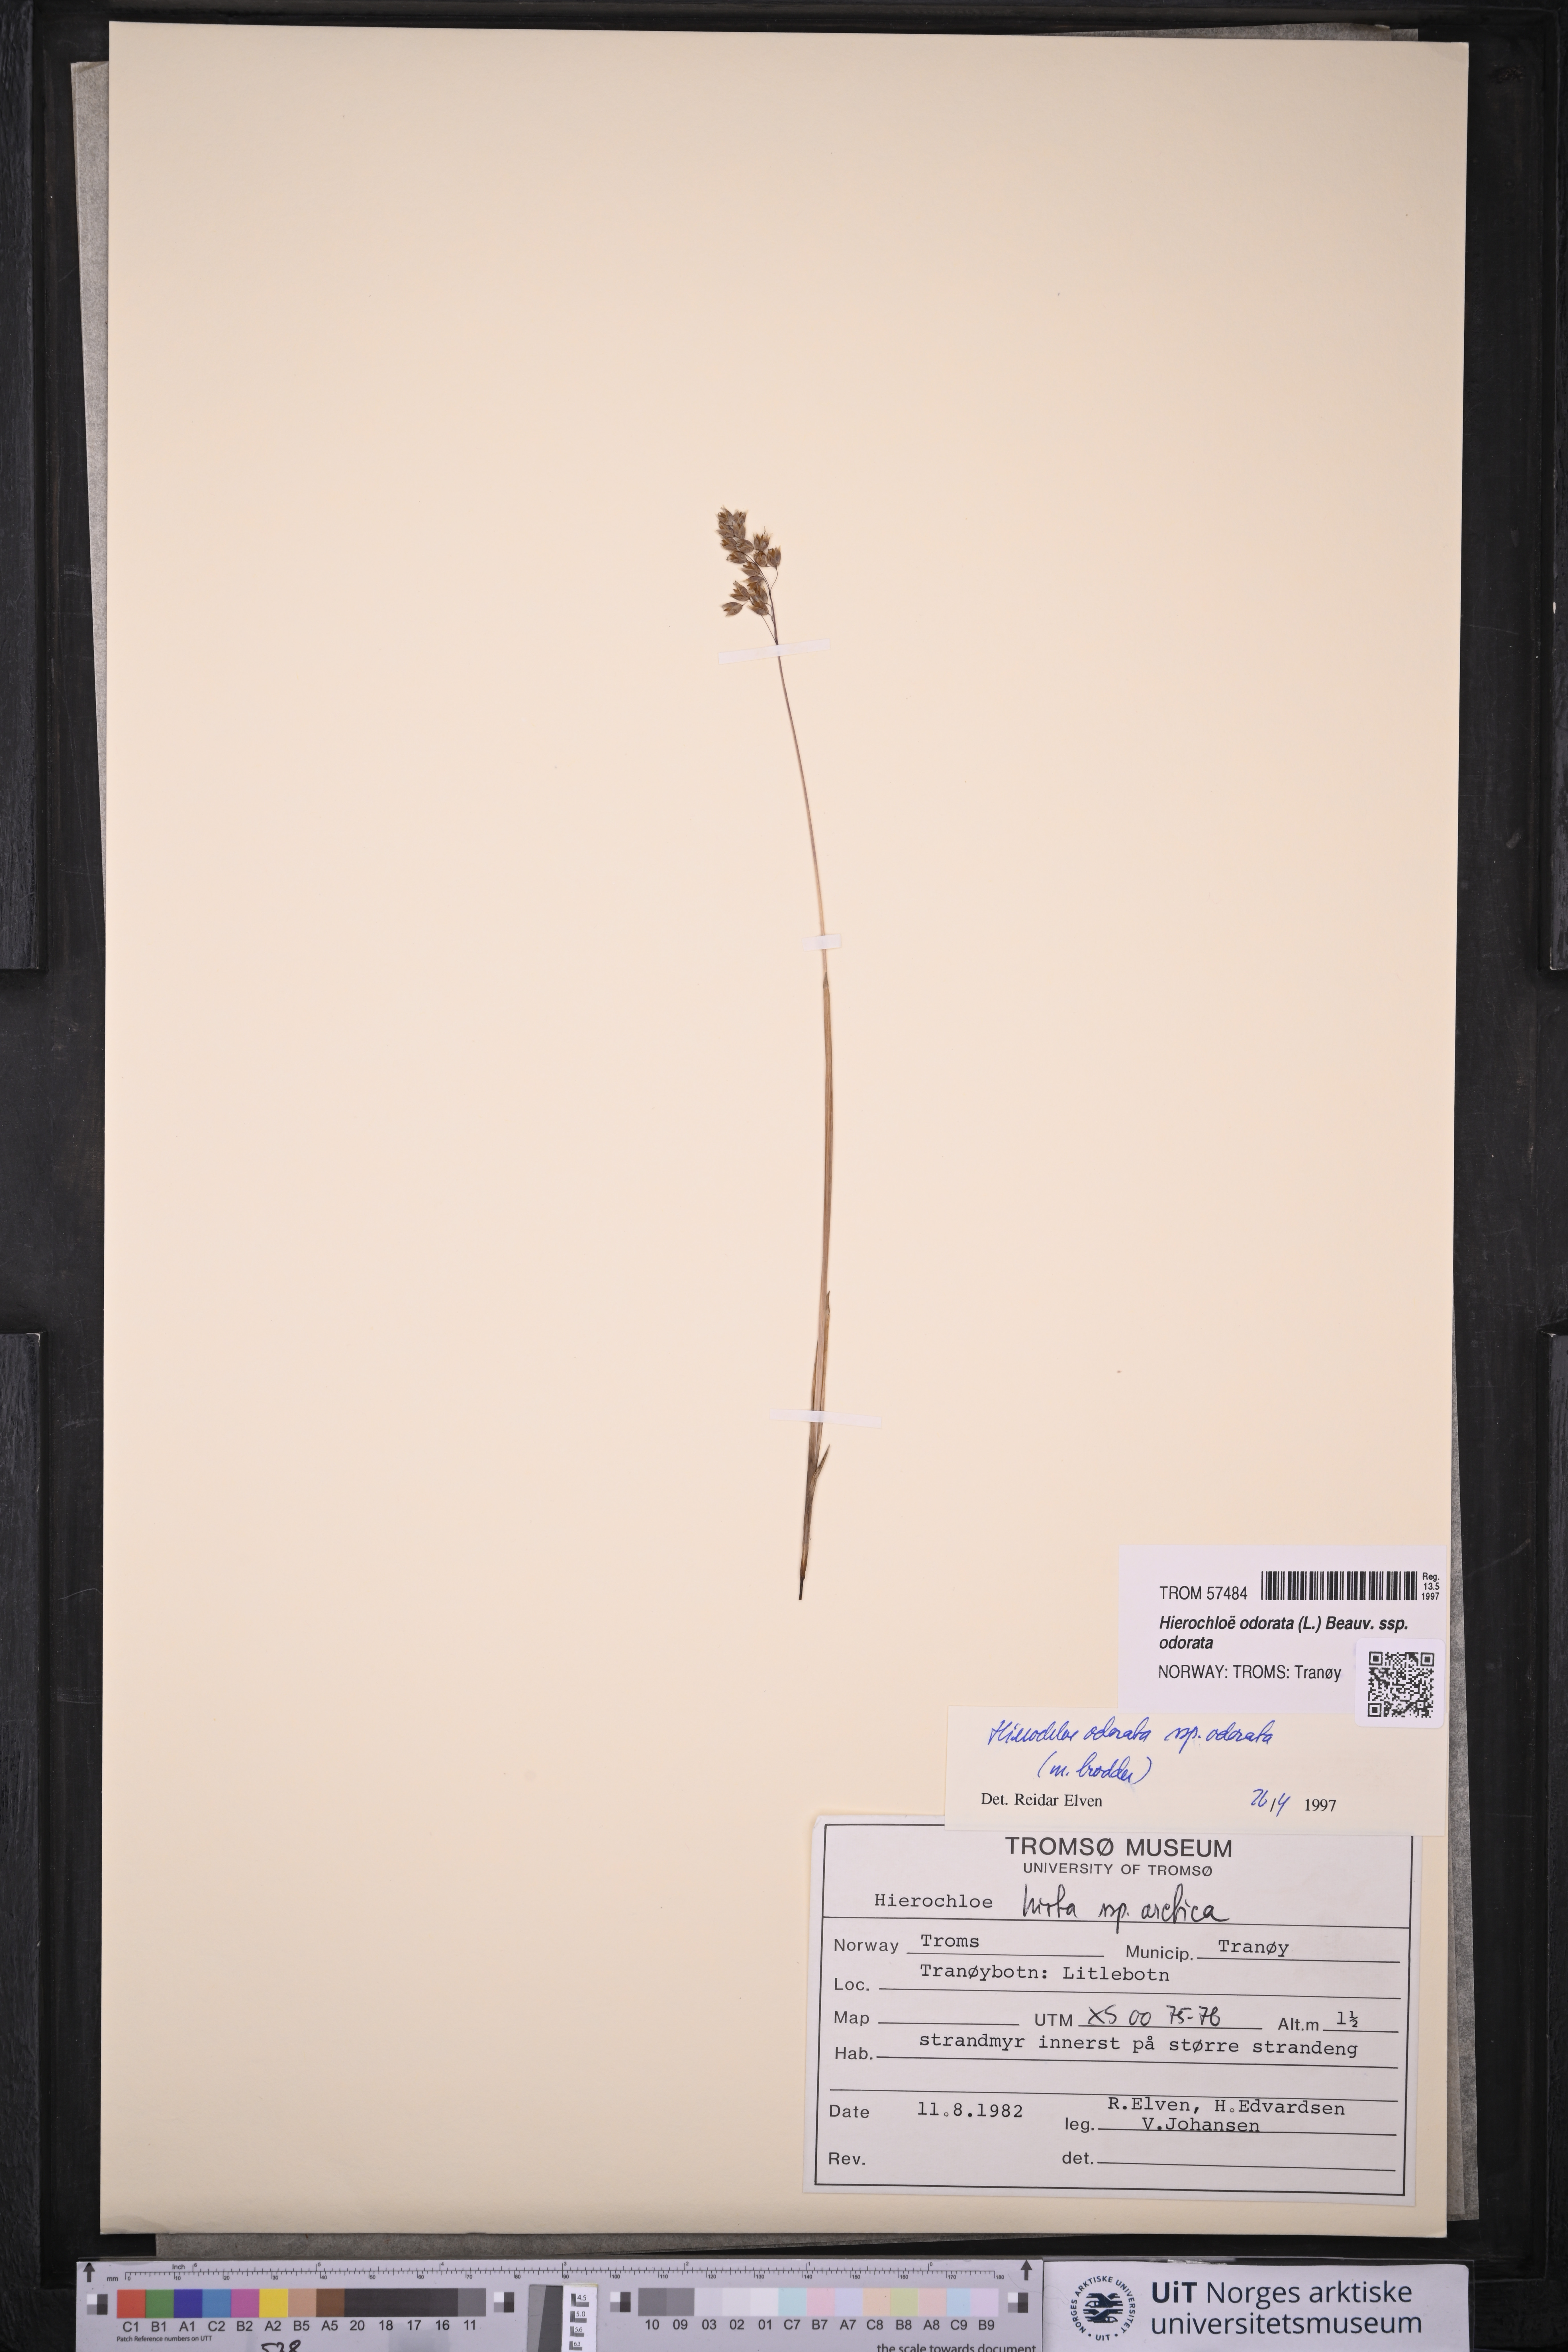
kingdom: Plantae
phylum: Tracheophyta
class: Liliopsida
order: Poales
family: Poaceae
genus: Anthoxanthum
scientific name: Anthoxanthum nitens
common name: Holy grass
